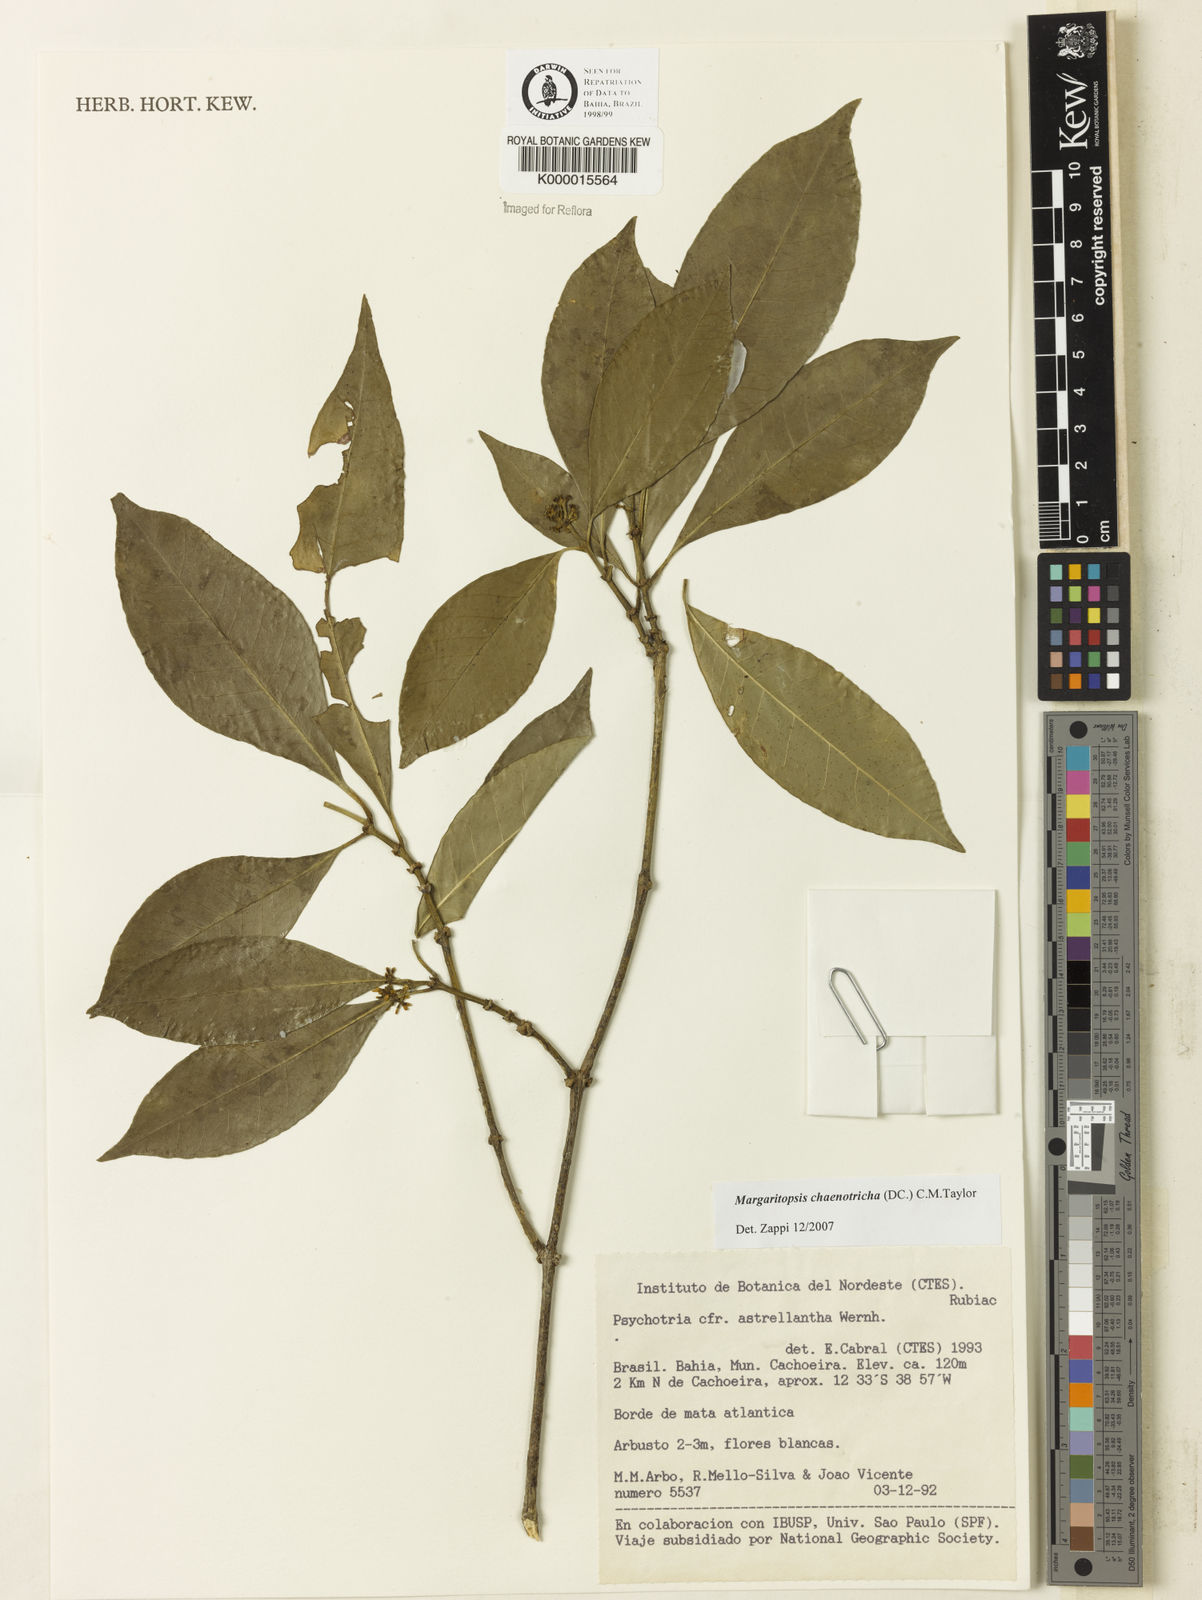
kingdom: Plantae
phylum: Tracheophyta
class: Magnoliopsida
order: Gentianales
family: Rubiaceae
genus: Eumachia
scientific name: Eumachia chaenotricha
